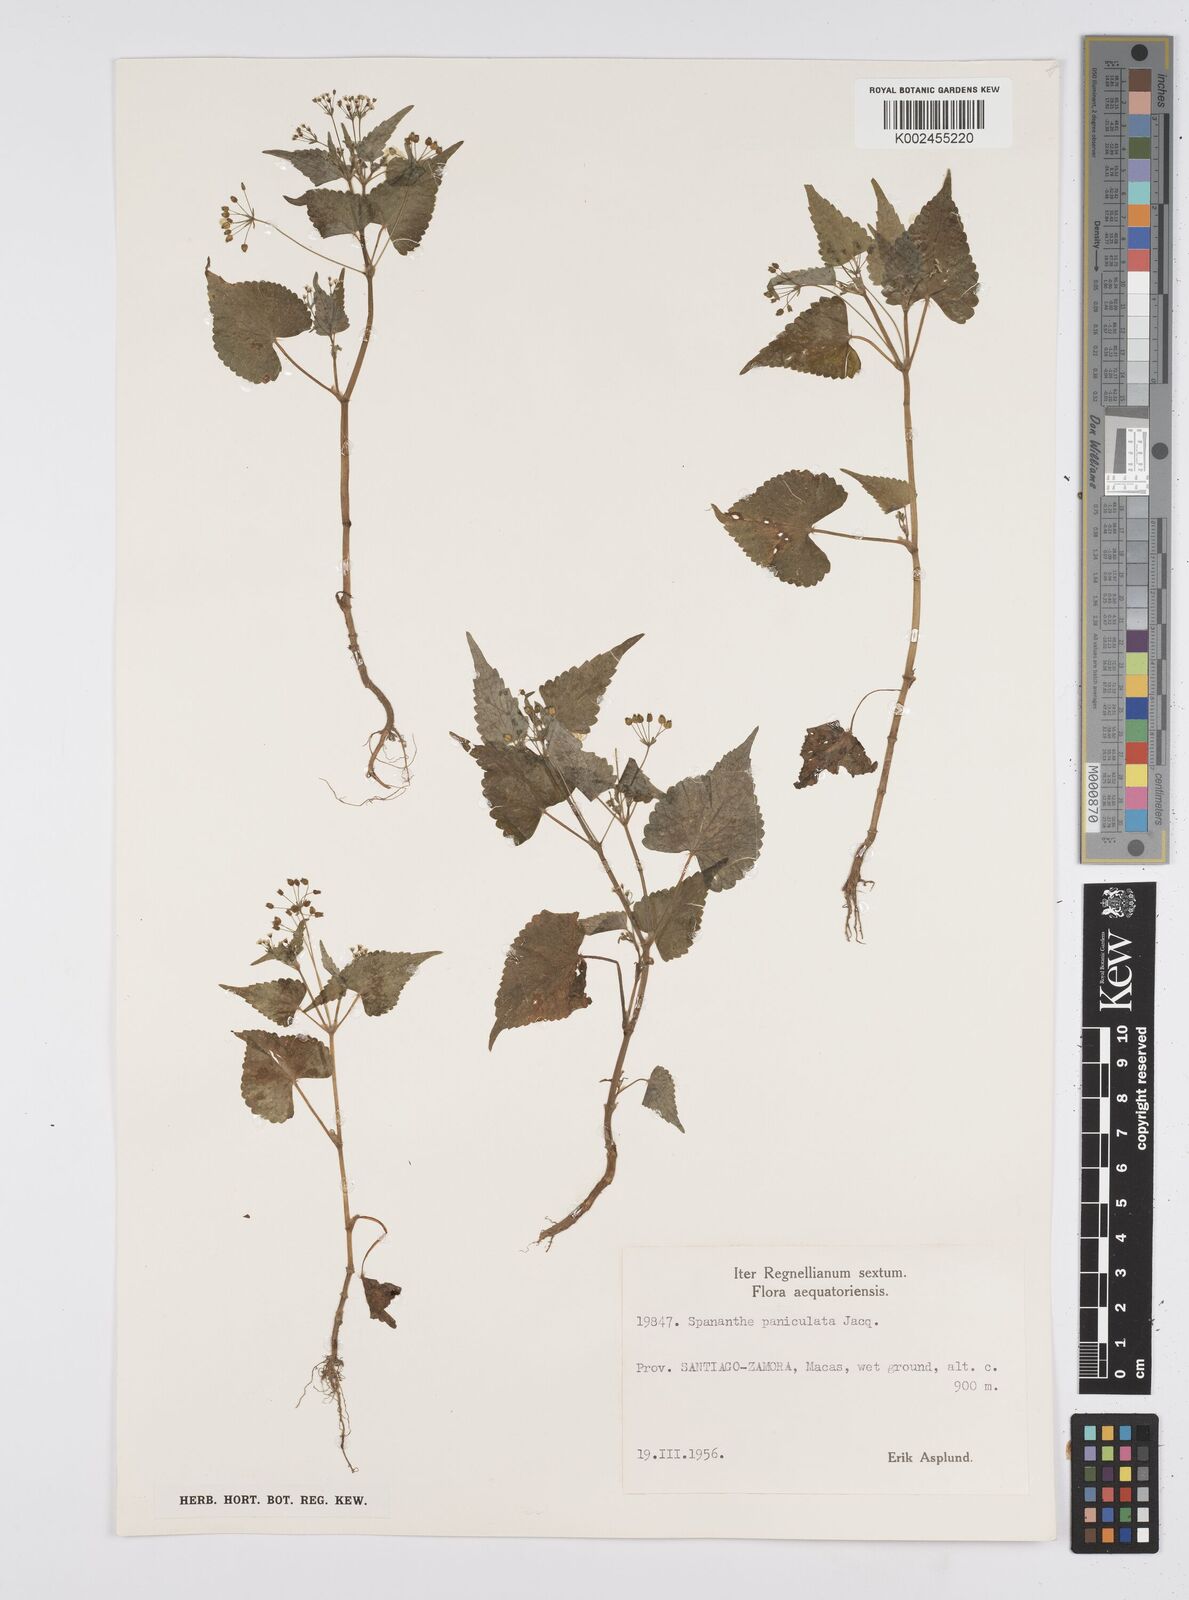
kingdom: Plantae
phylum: Tracheophyta
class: Magnoliopsida
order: Apiales
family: Apiaceae
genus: Azorella
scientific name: Azorella
